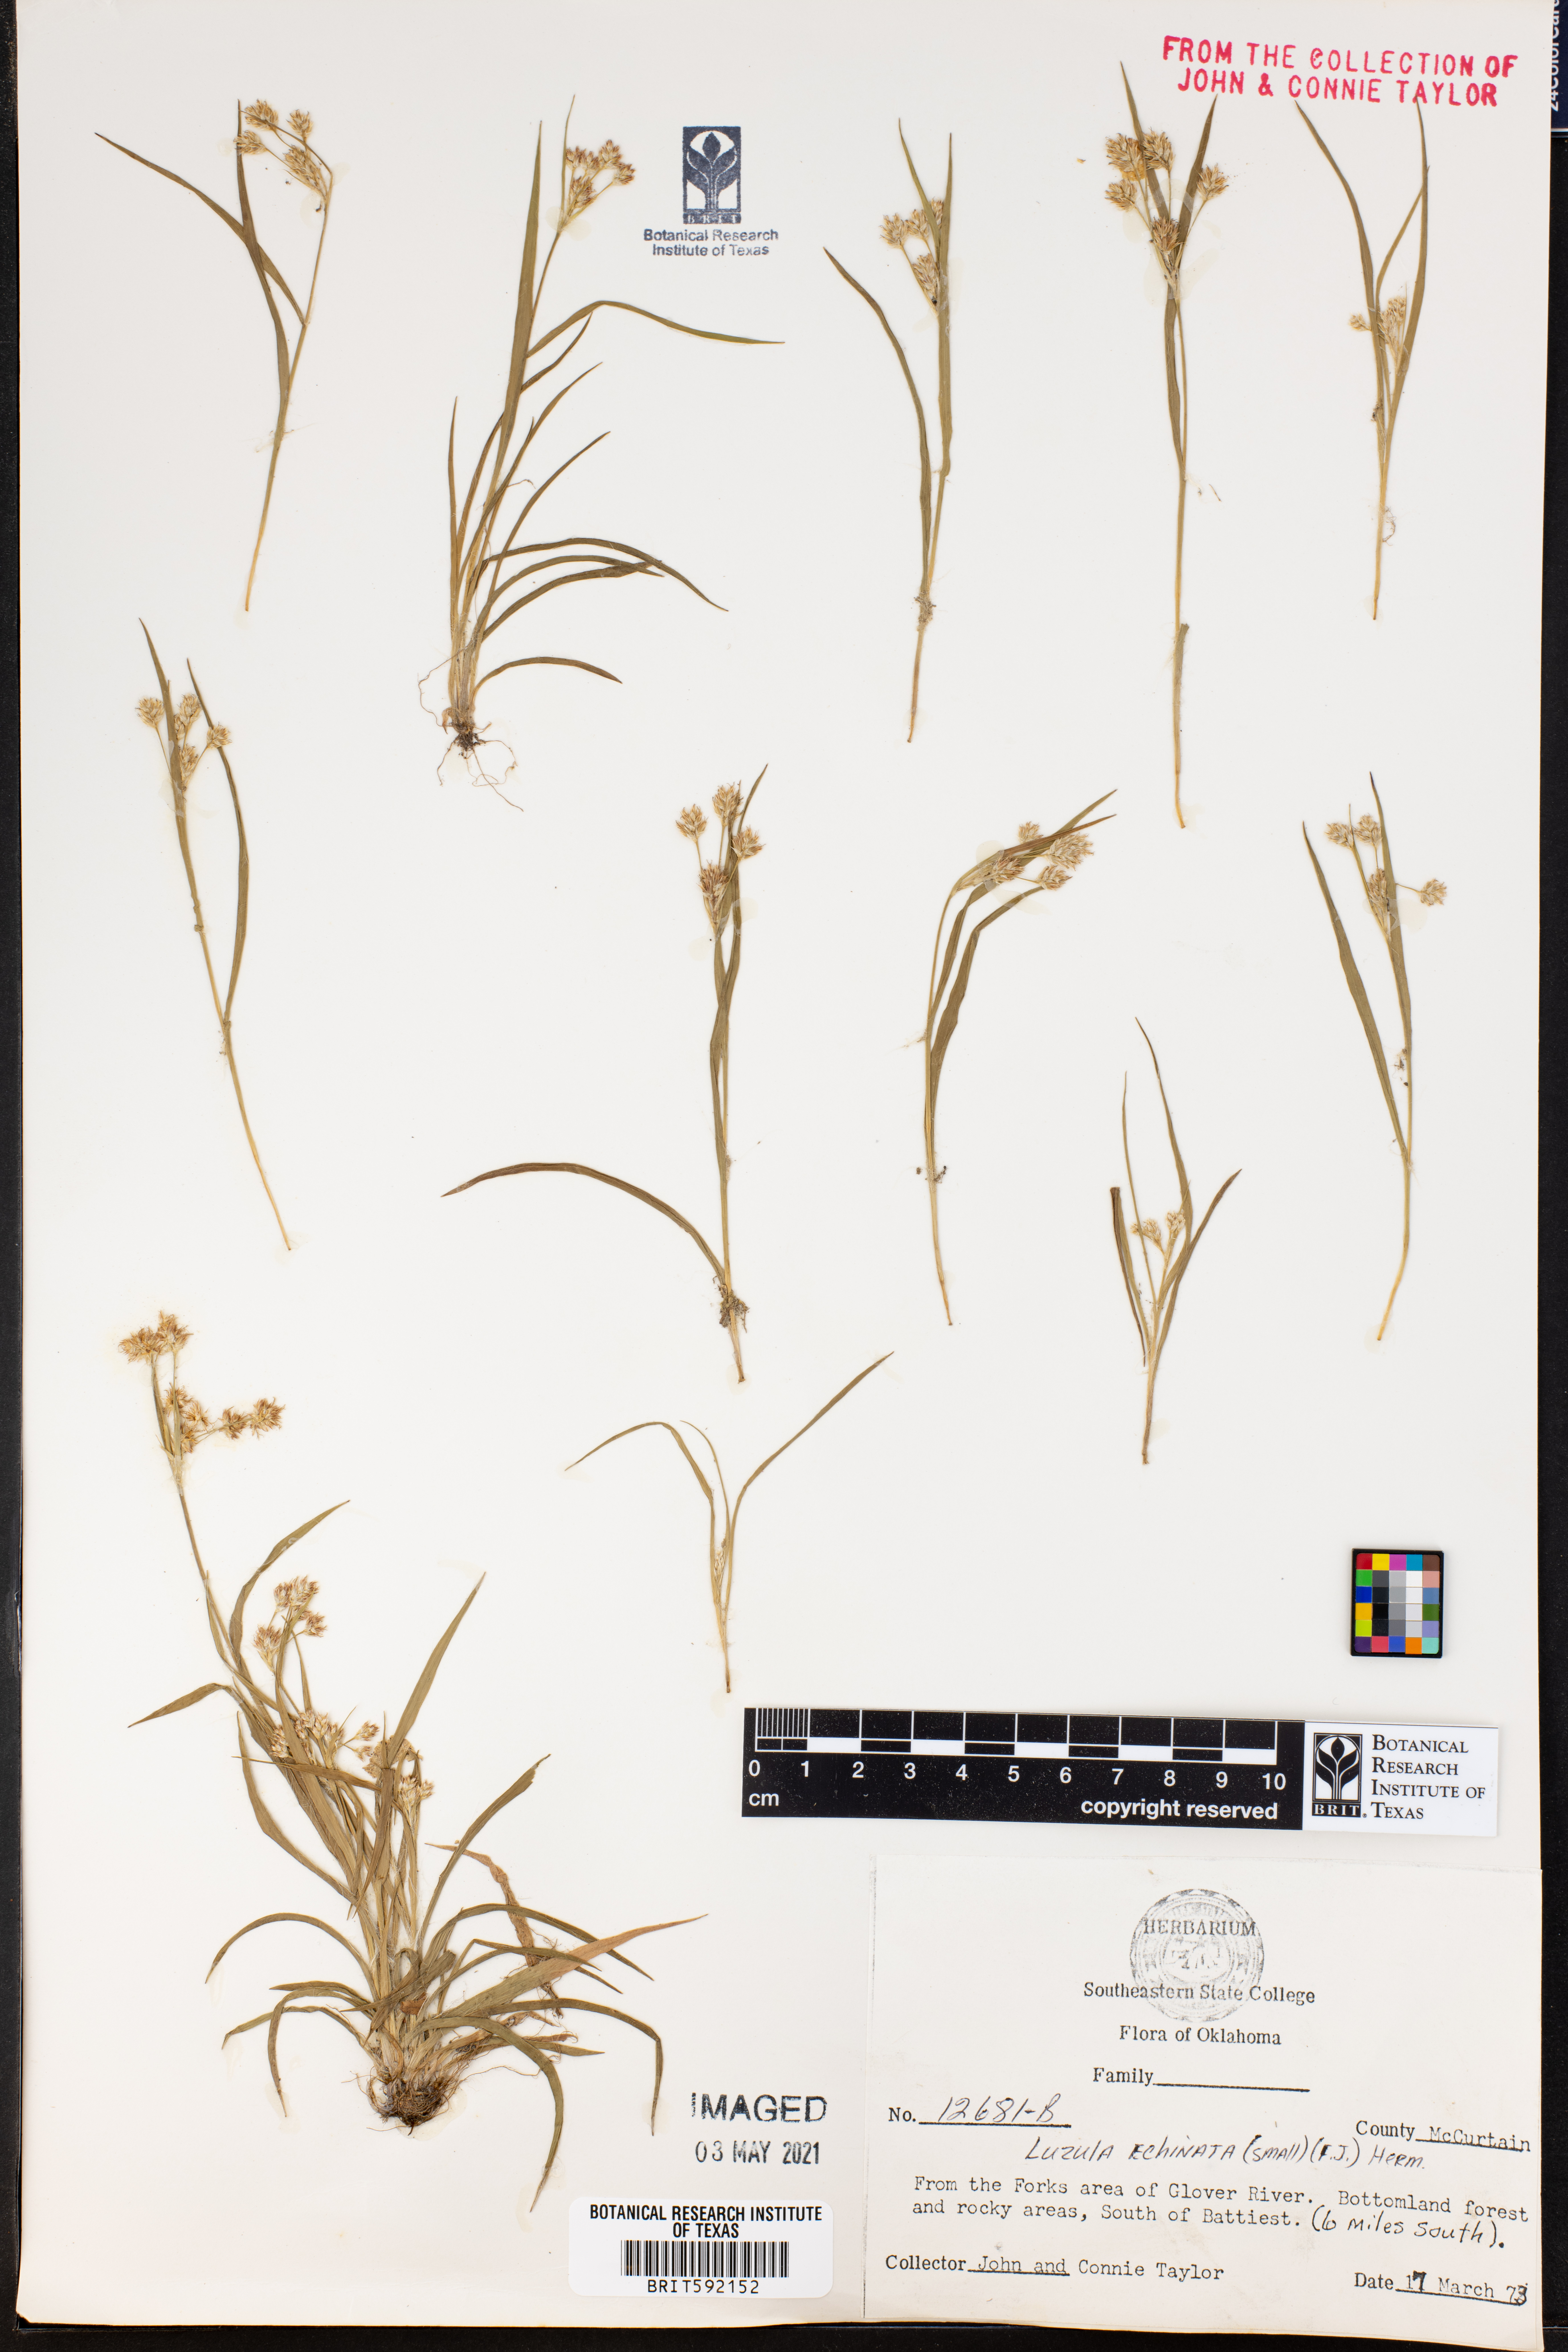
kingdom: Plantae
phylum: Tracheophyta
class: Liliopsida
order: Poales
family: Juncaceae
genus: Luzula
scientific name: Luzula echinata
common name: Hedgehog woodrush
